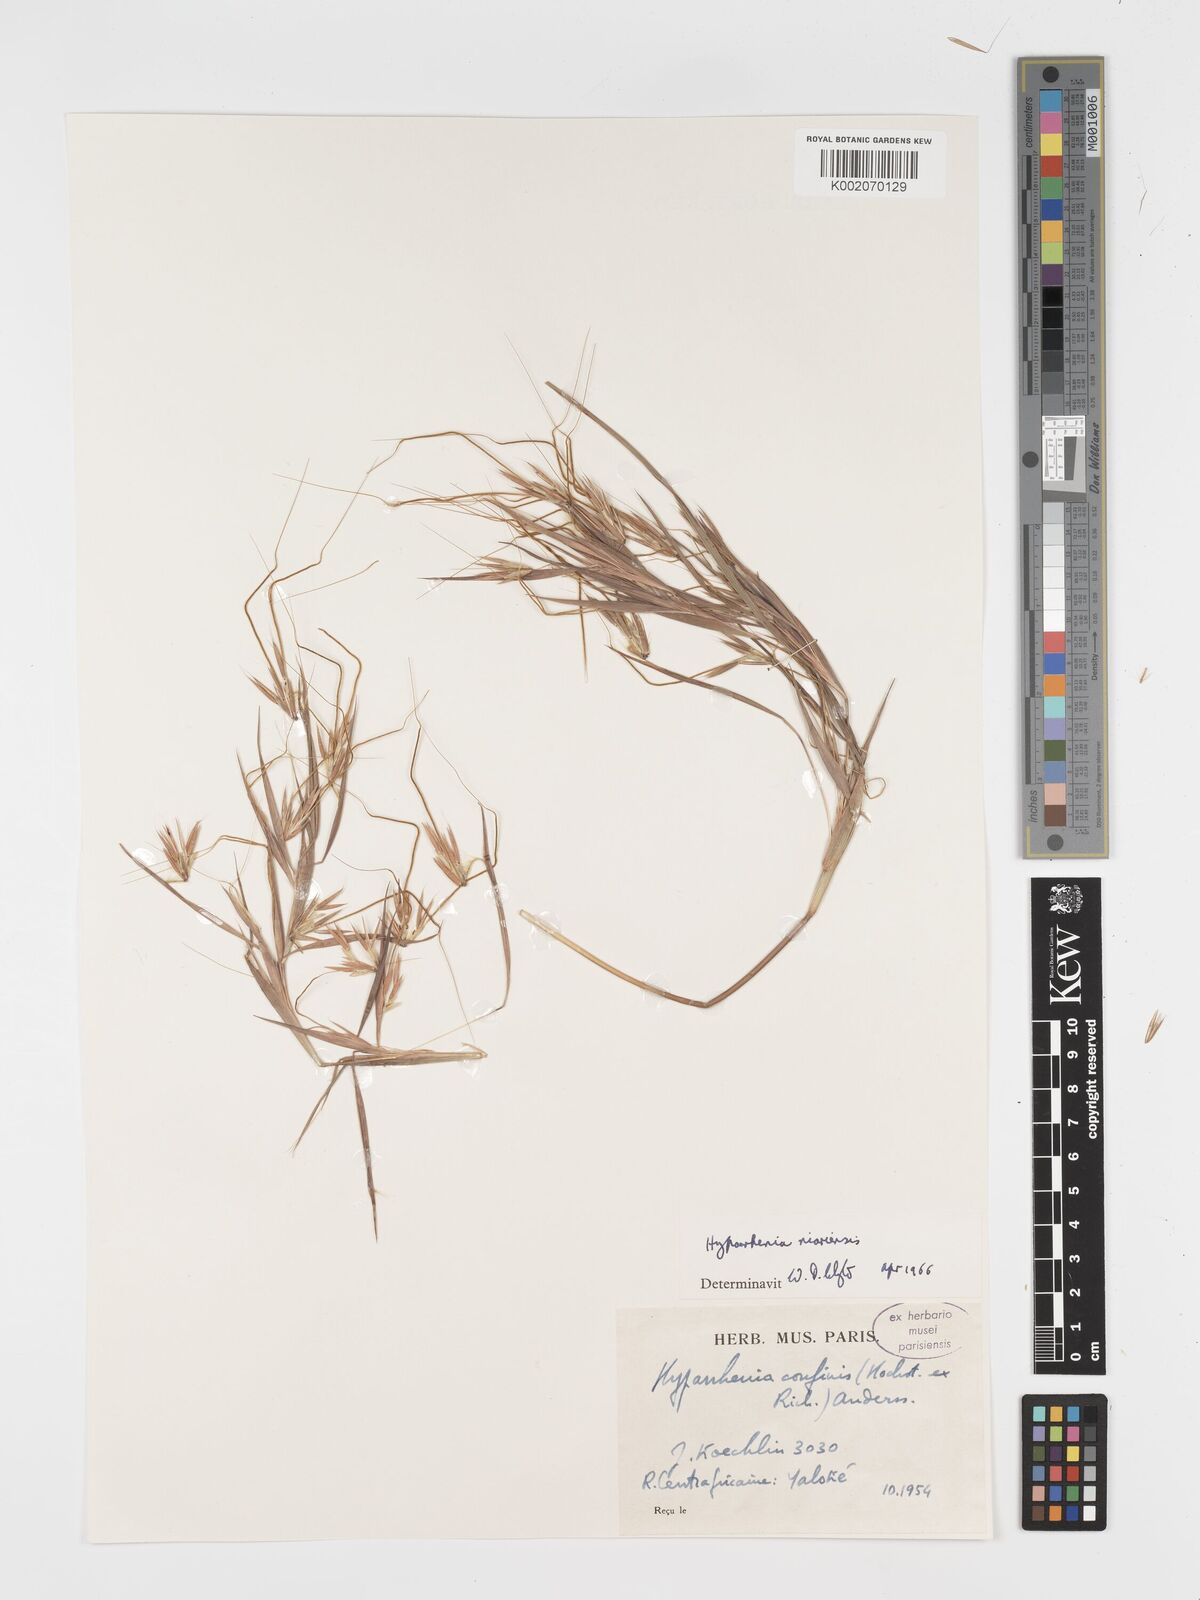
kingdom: Plantae
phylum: Tracheophyta
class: Liliopsida
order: Poales
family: Poaceae
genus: Hyparrhenia
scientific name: Hyparrhenia niariensis
